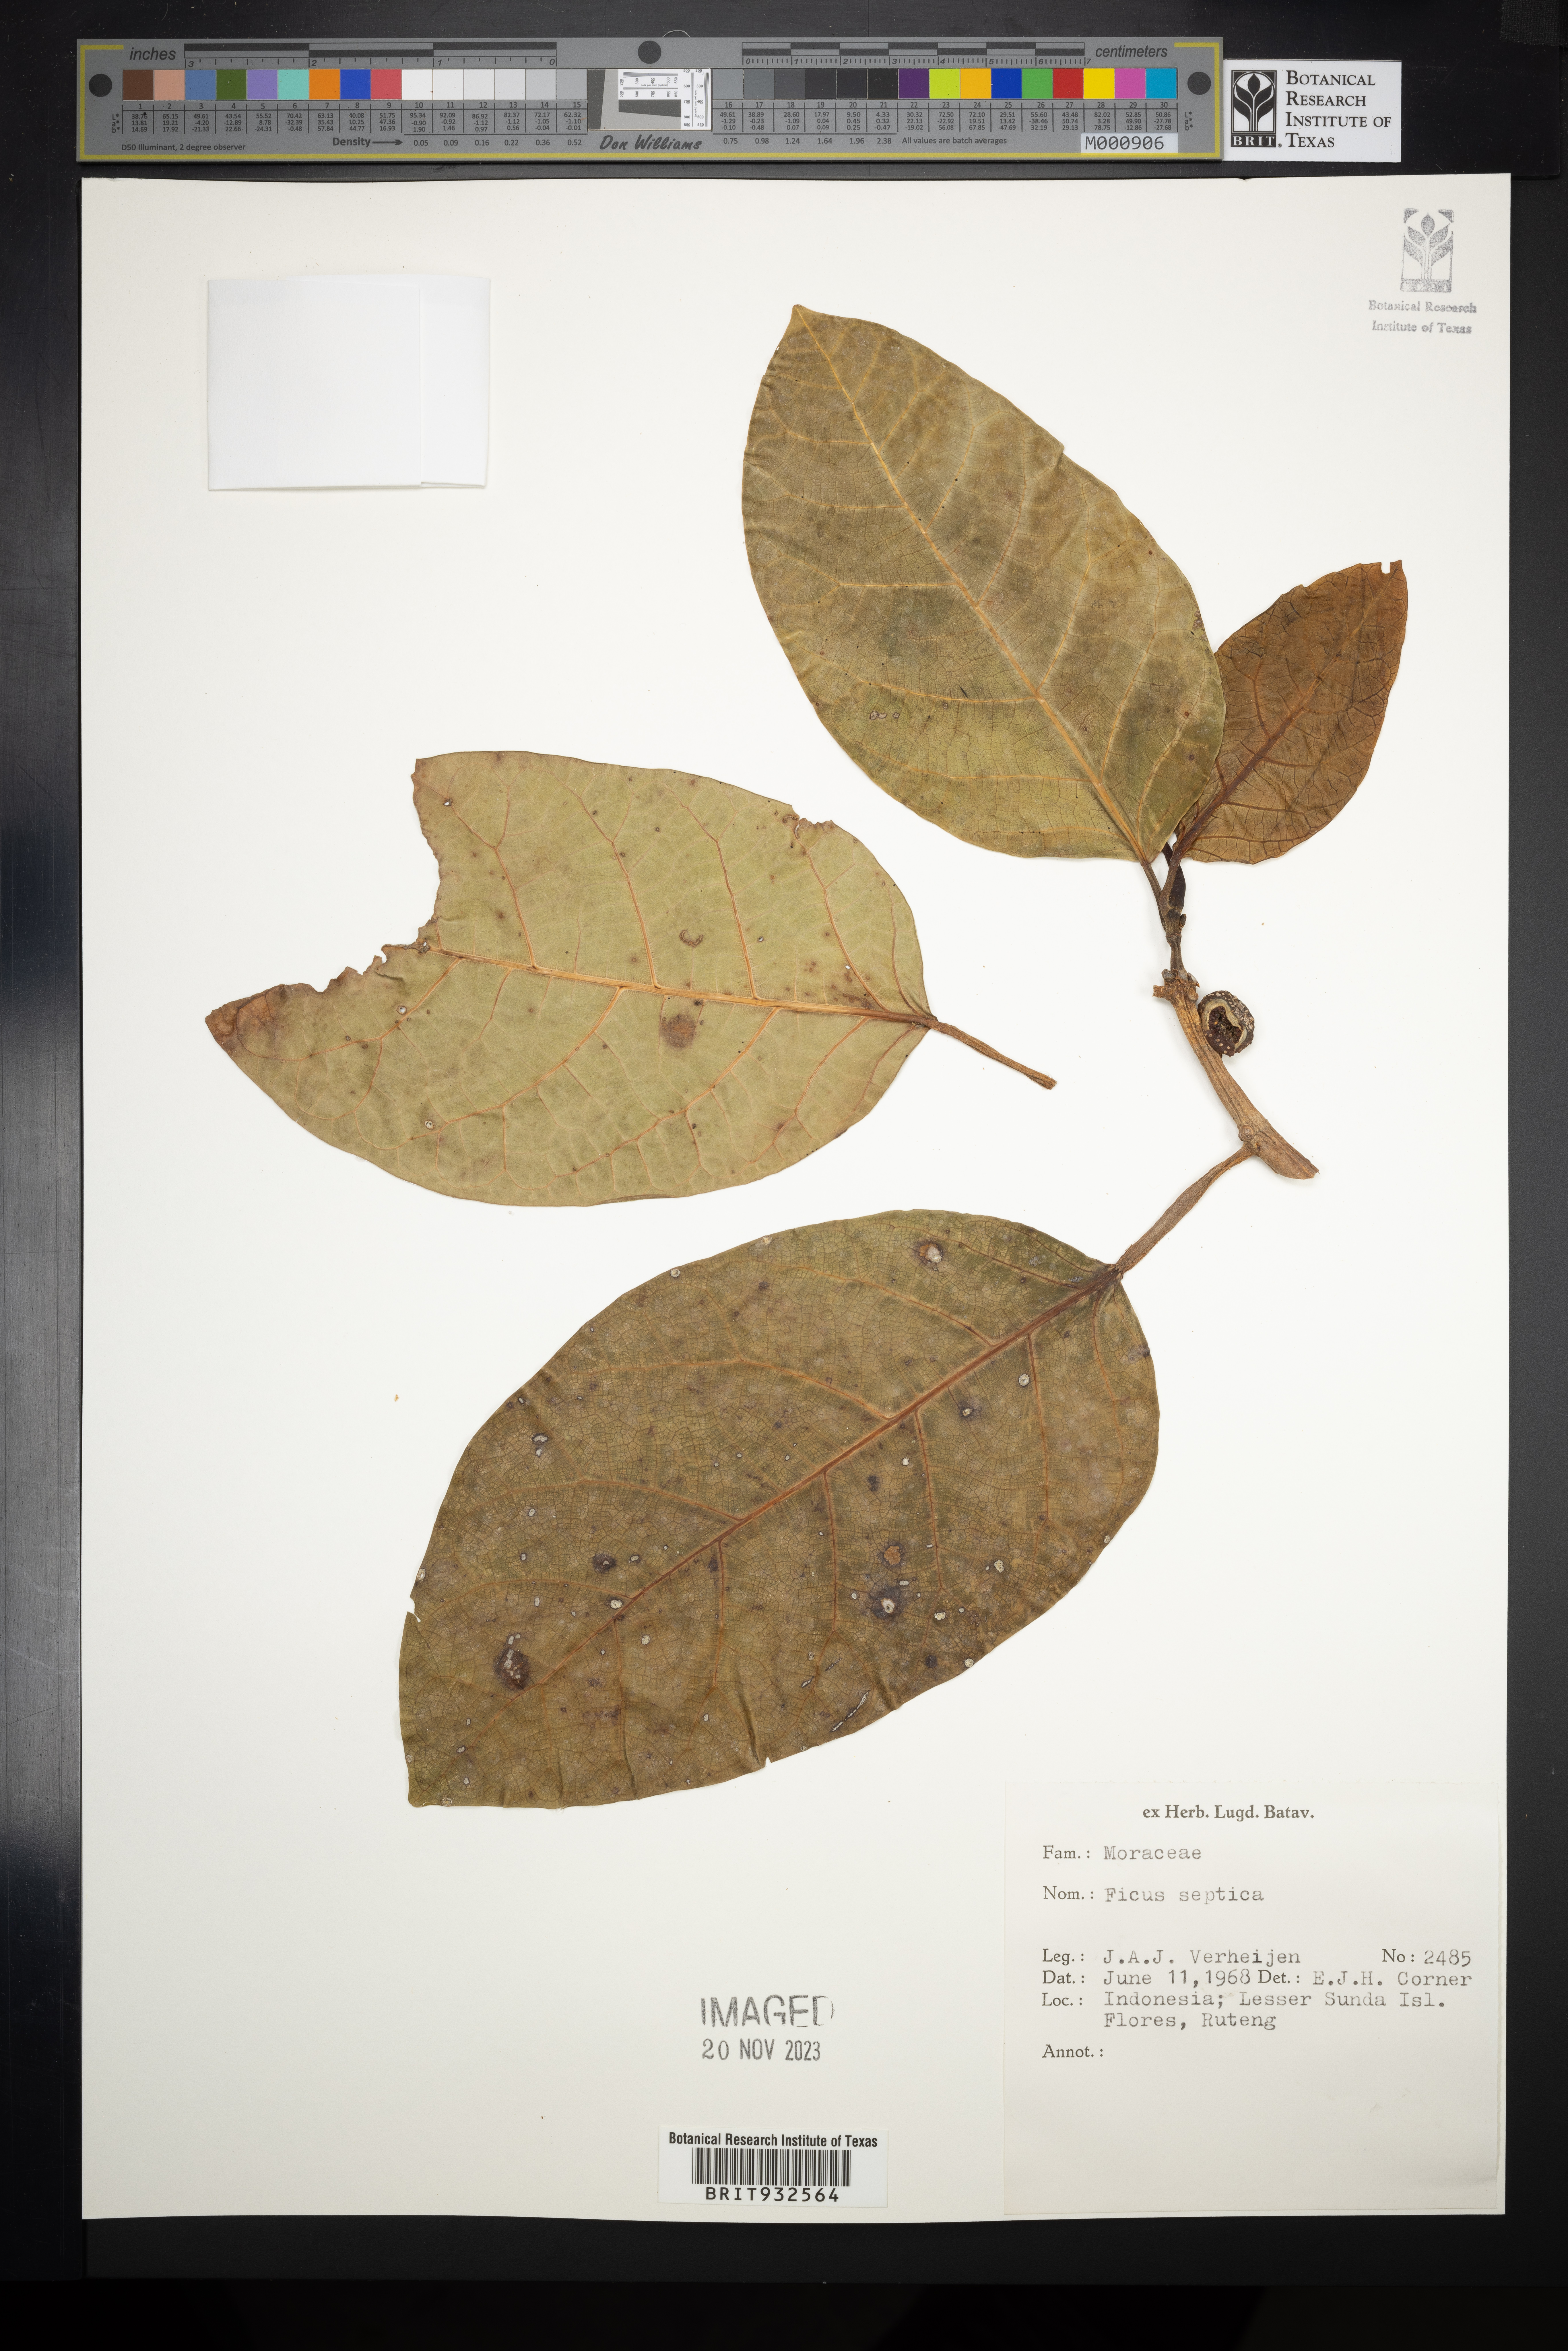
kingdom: Plantae
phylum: Tracheophyta
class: Magnoliopsida
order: Rosales
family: Moraceae
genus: Ficus
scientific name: Ficus septica
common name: Septic fig
